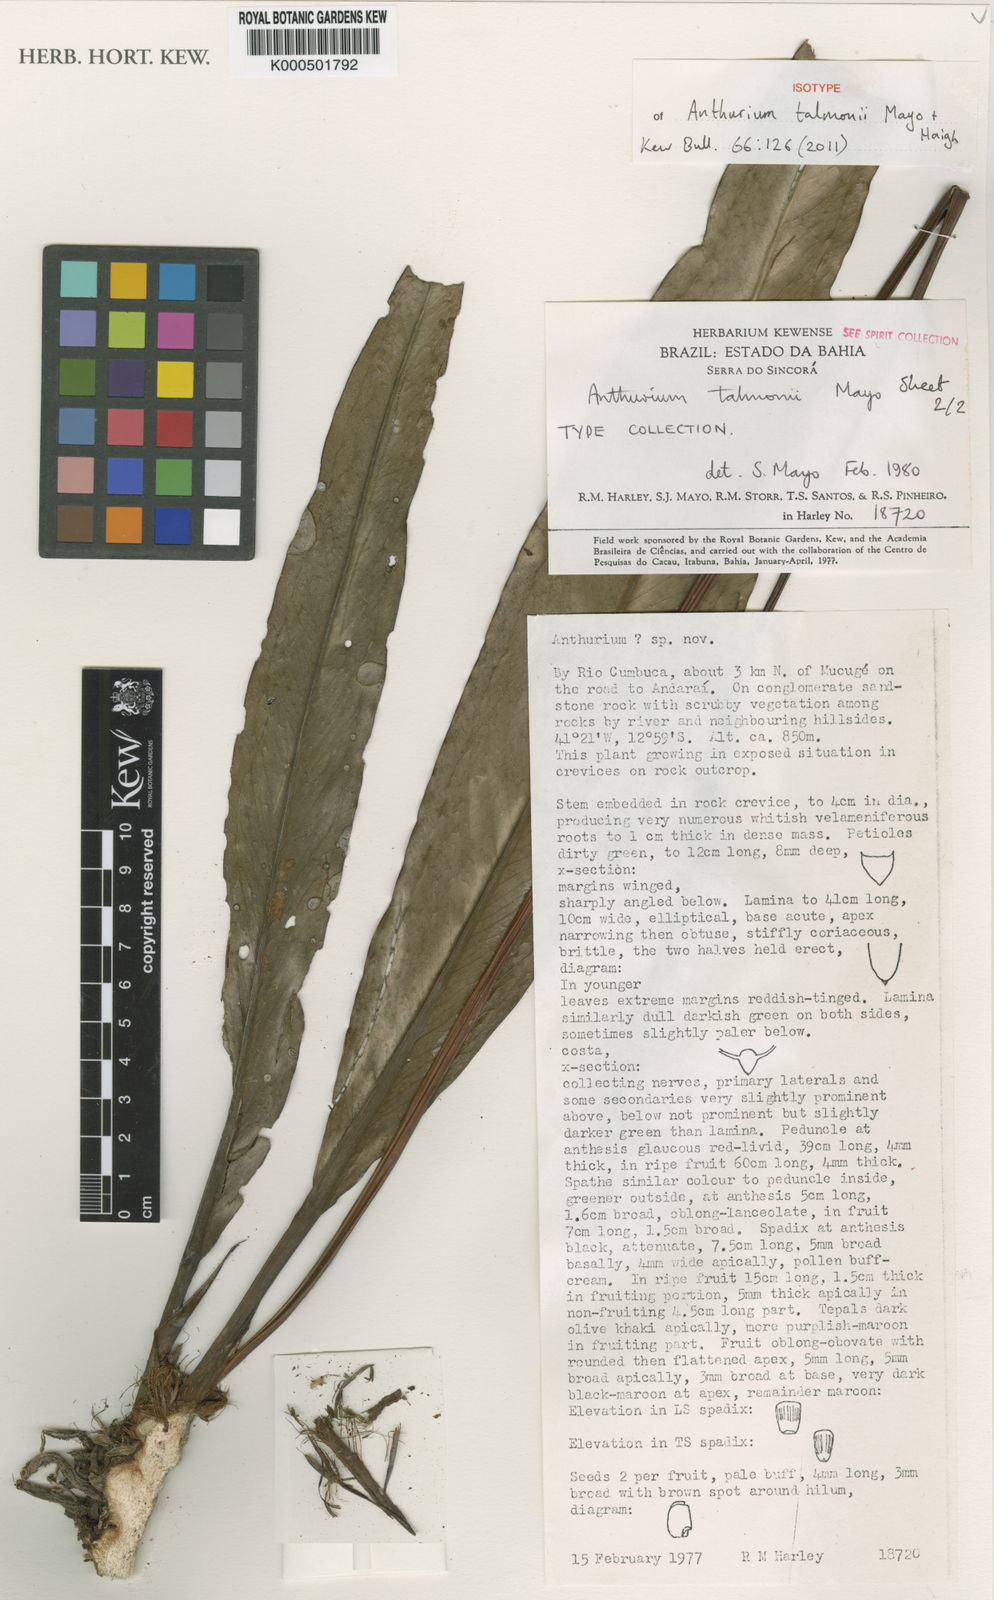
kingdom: Plantae
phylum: Tracheophyta
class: Liliopsida
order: Alismatales
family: Araceae
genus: Anthurium
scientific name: Anthurium talmonii
